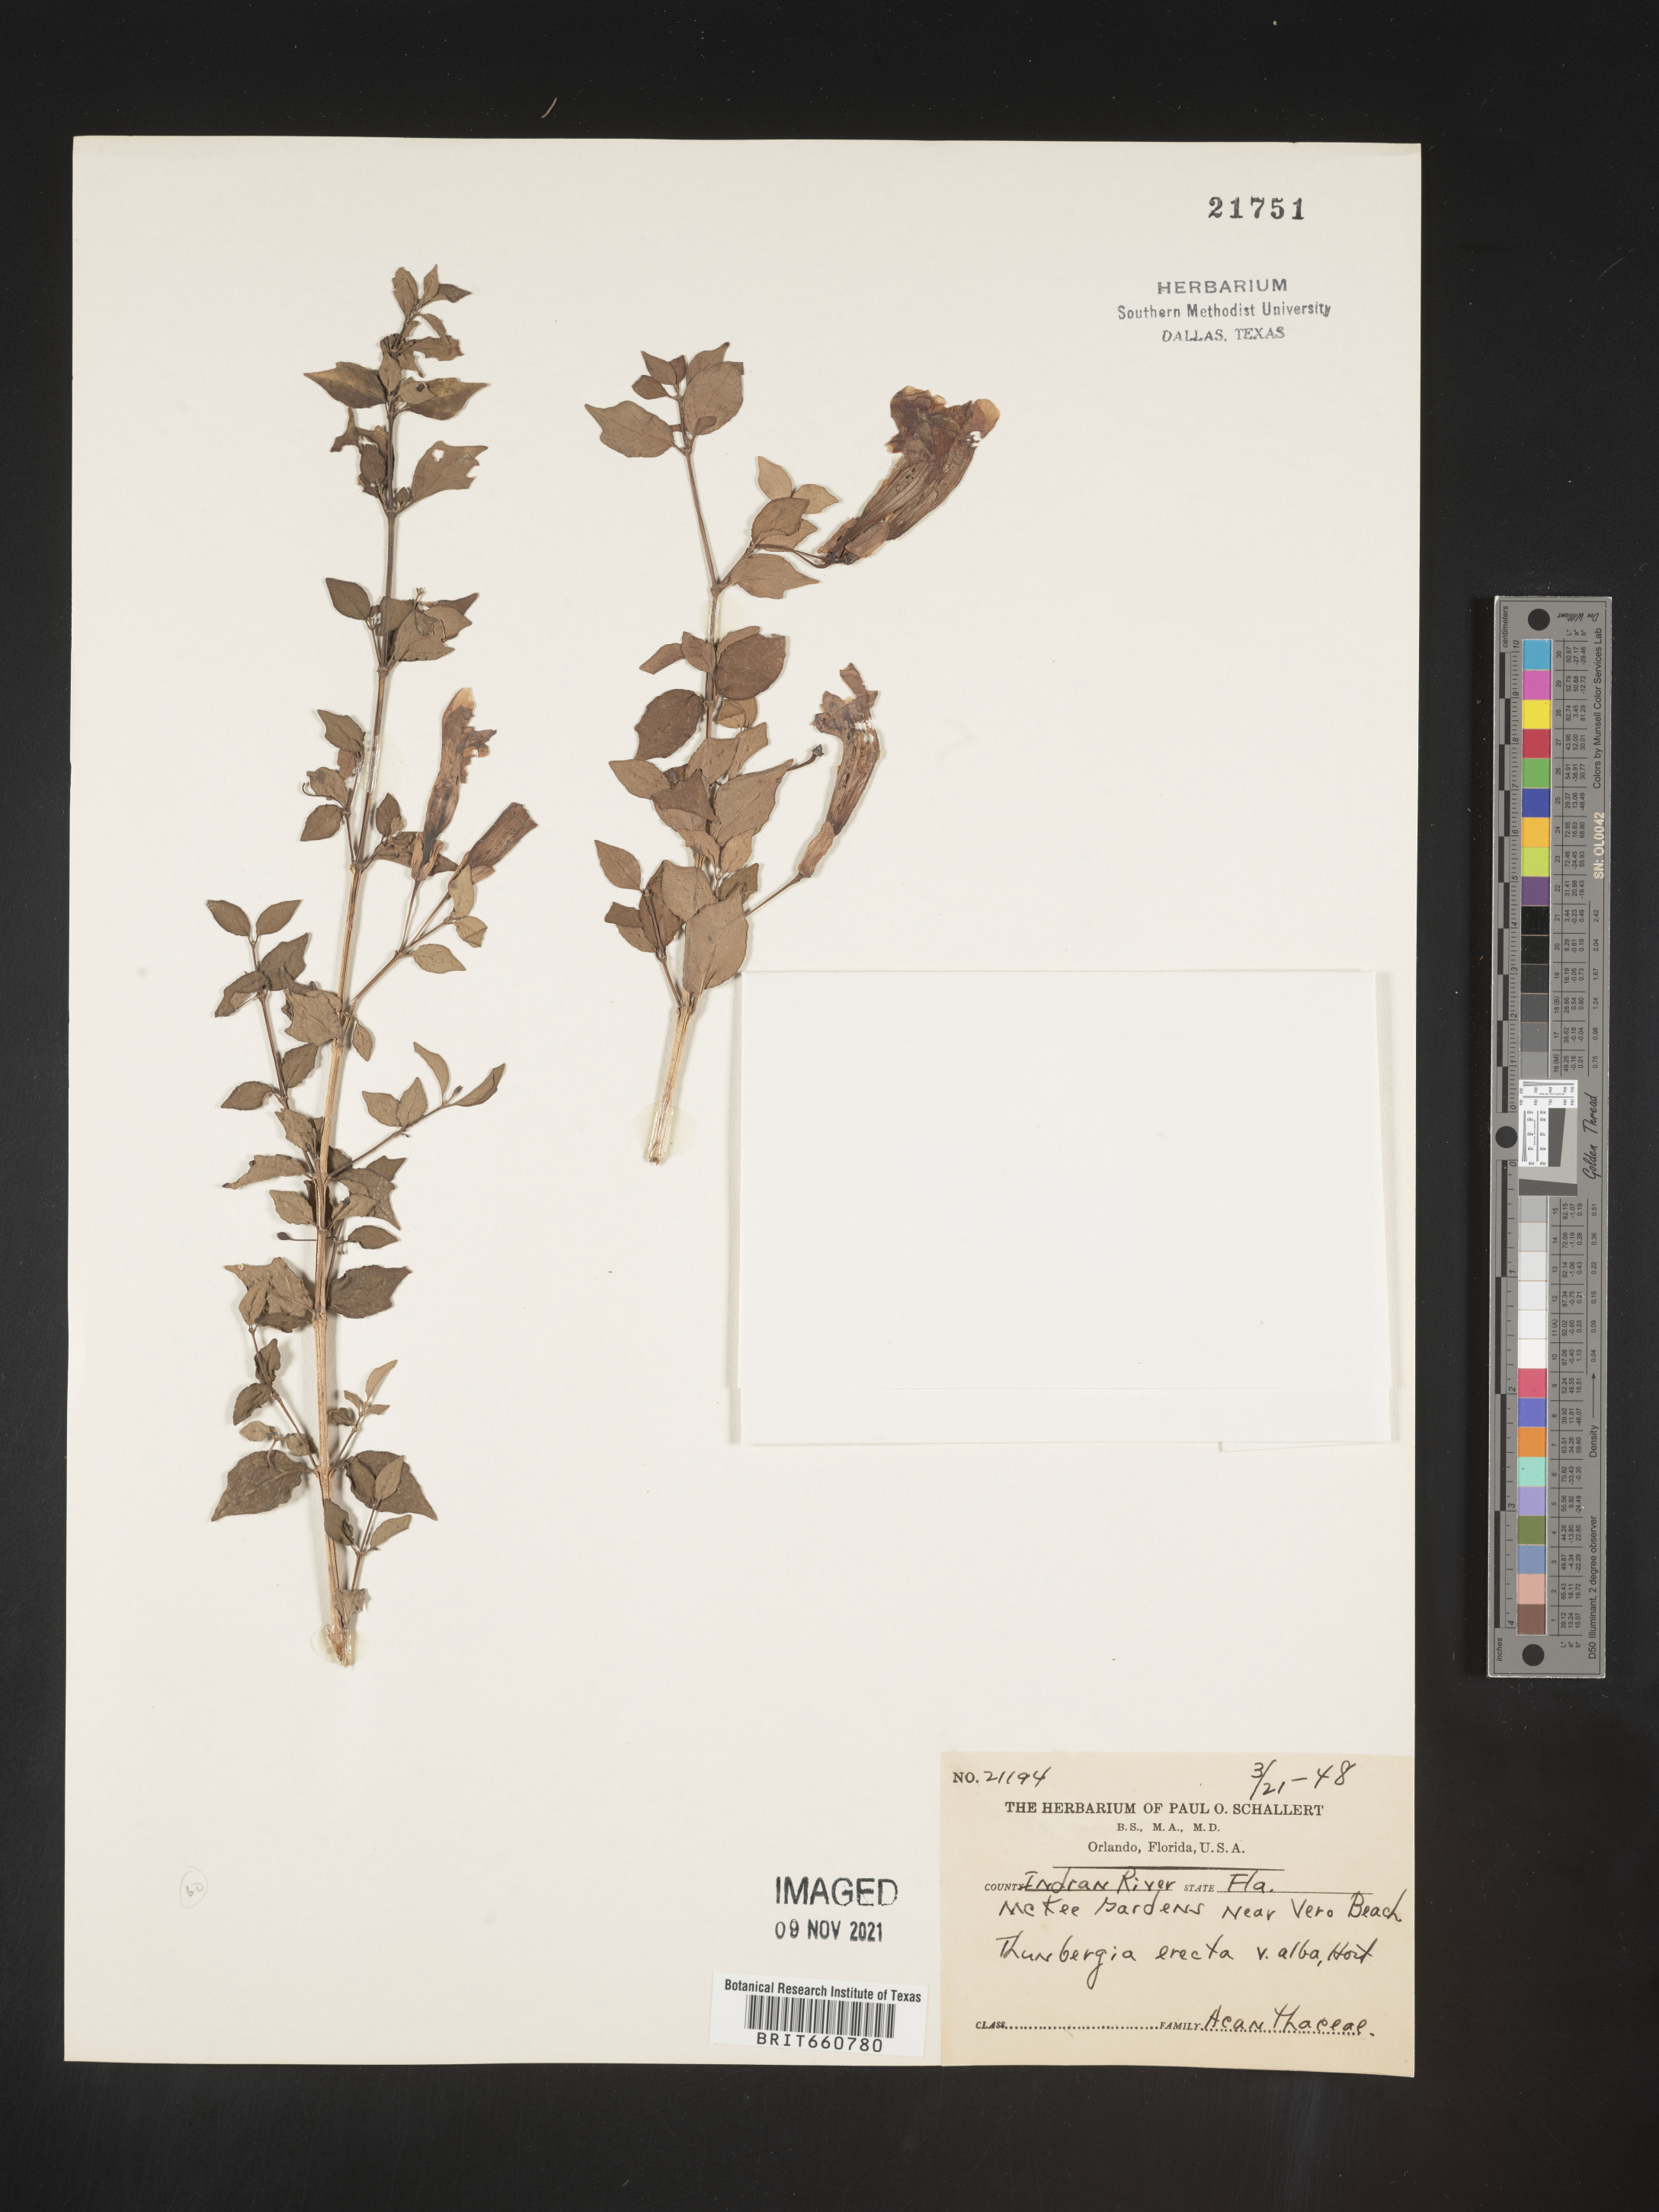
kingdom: Plantae
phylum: Tracheophyta
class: Magnoliopsida
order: Lamiales
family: Acanthaceae
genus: Thunbergia
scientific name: Thunbergia
